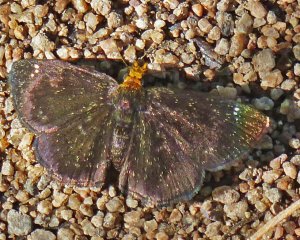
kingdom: Animalia
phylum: Arthropoda
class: Insecta
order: Lepidoptera
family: Hesperiidae
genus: Staphylus
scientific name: Staphylus ceos
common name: Golden-headed Scallopwing
